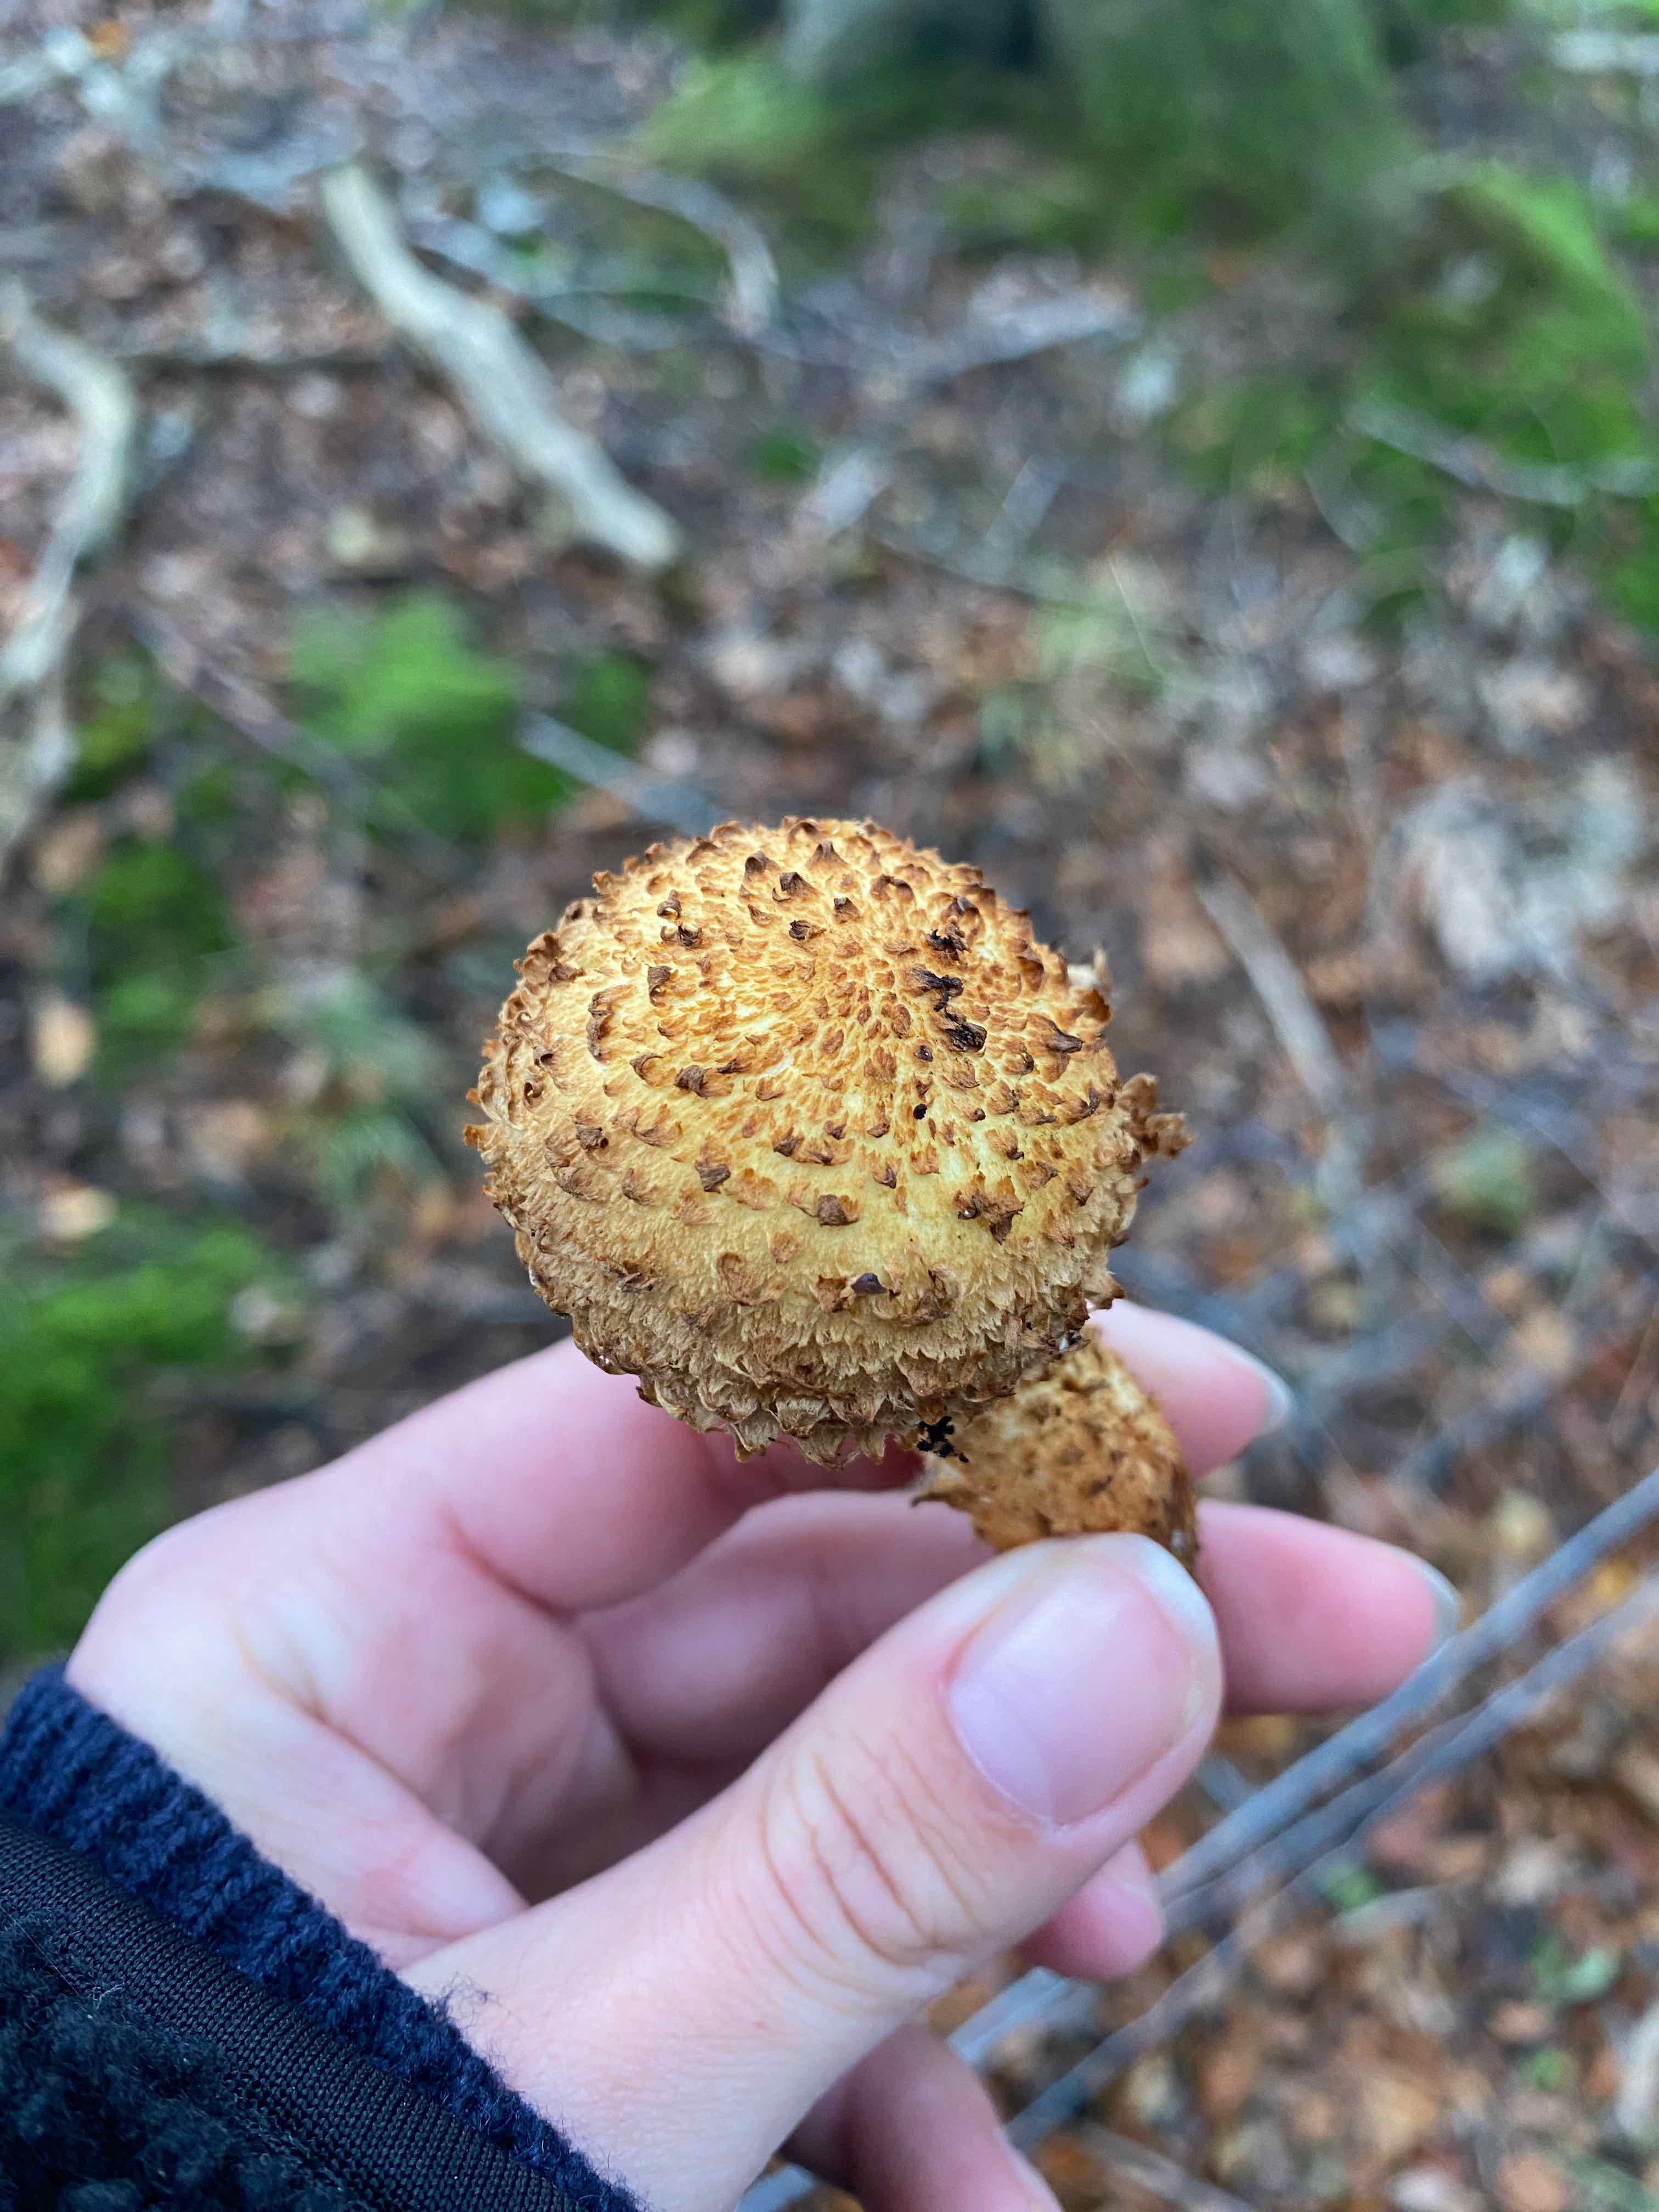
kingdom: Fungi
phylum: Basidiomycota
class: Agaricomycetes
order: Agaricales
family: Strophariaceae
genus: Pholiota
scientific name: Pholiota squarrosa
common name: krumskællet skælhat
